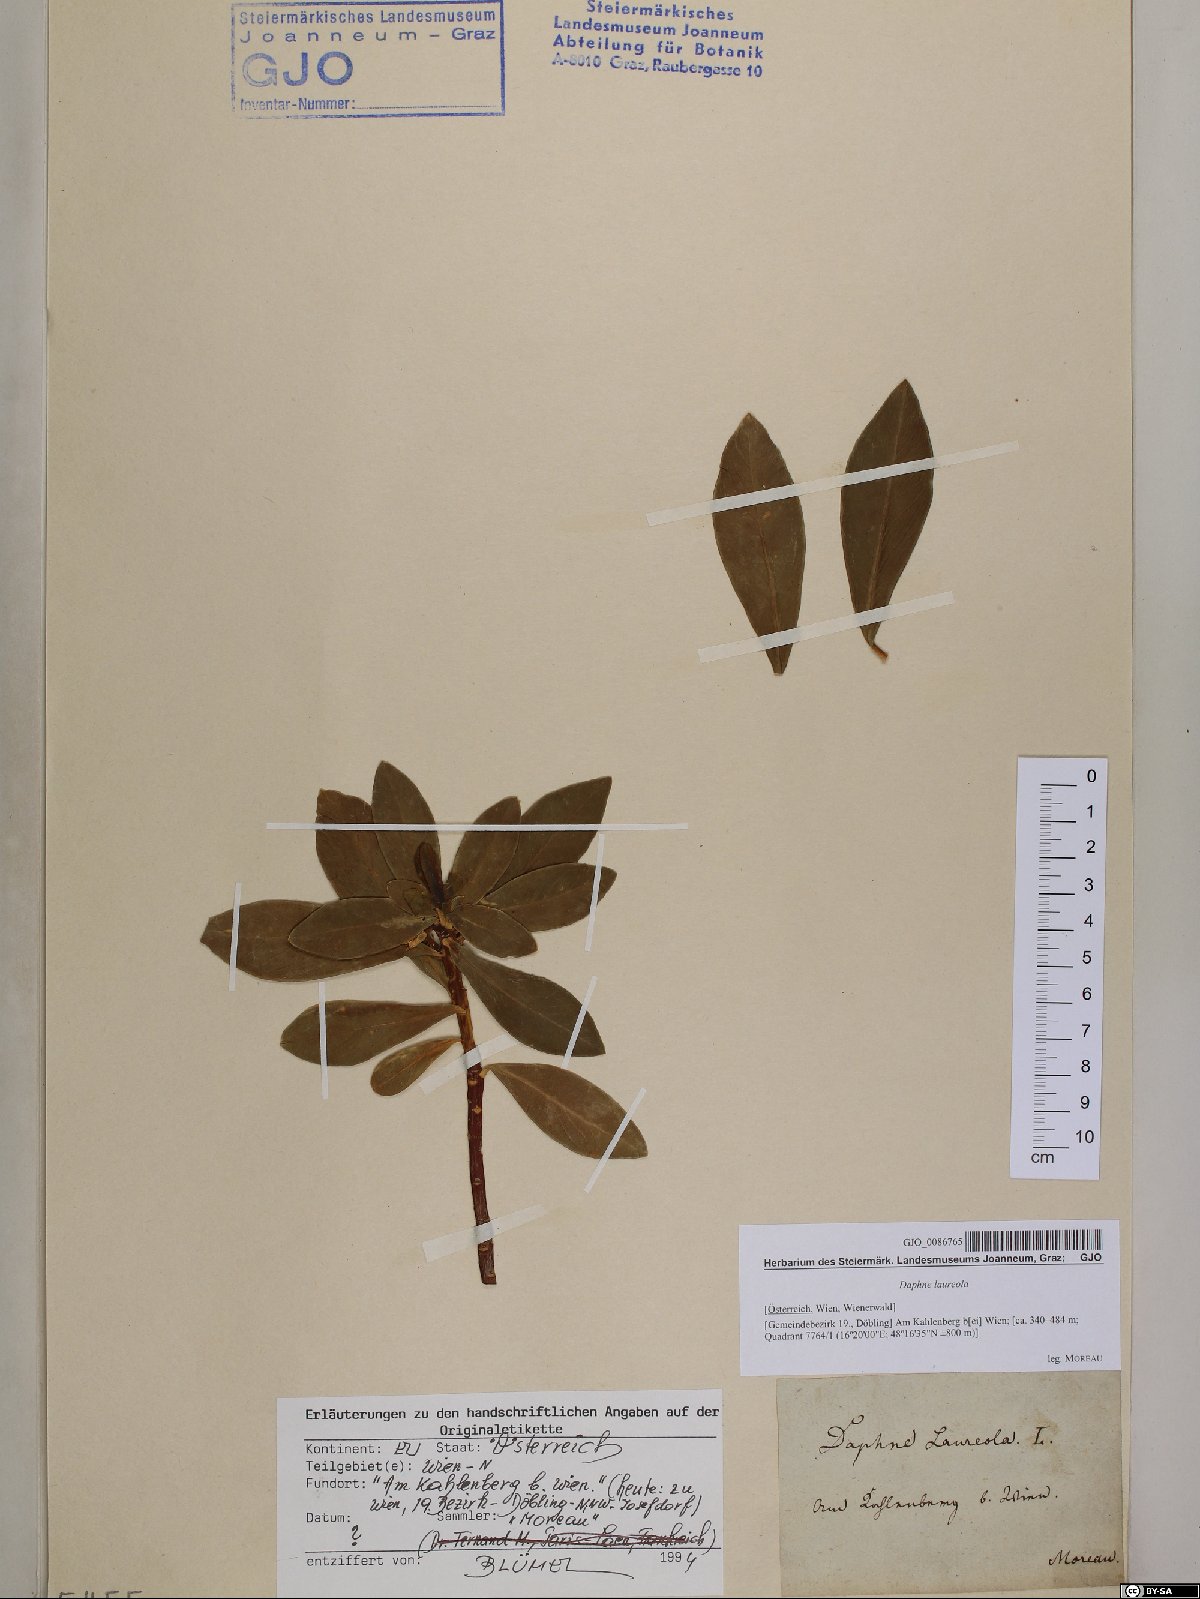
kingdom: Plantae
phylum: Tracheophyta
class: Magnoliopsida
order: Malvales
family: Thymelaeaceae
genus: Daphne
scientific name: Daphne laureola
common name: Spurge-laurel
